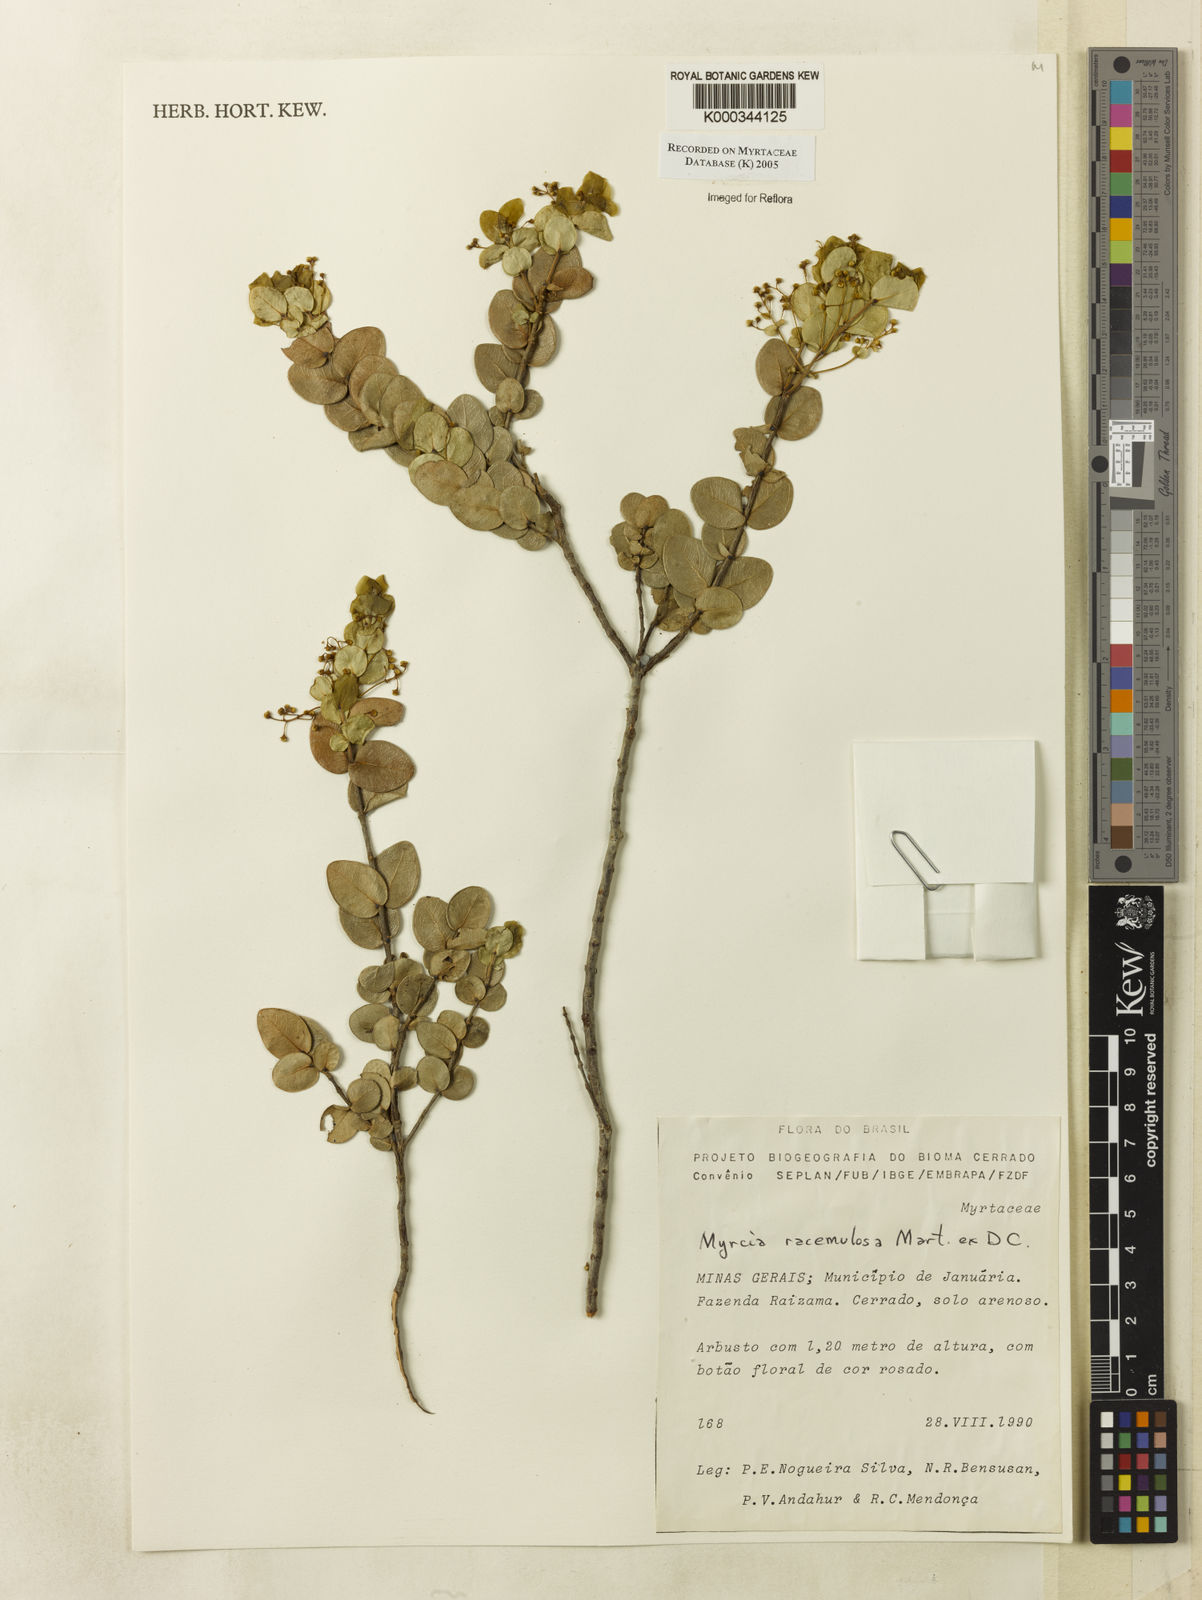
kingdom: Plantae
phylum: Tracheophyta
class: Magnoliopsida
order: Myrtales
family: Myrtaceae
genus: Myrcia
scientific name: Myrcia racemulosa
